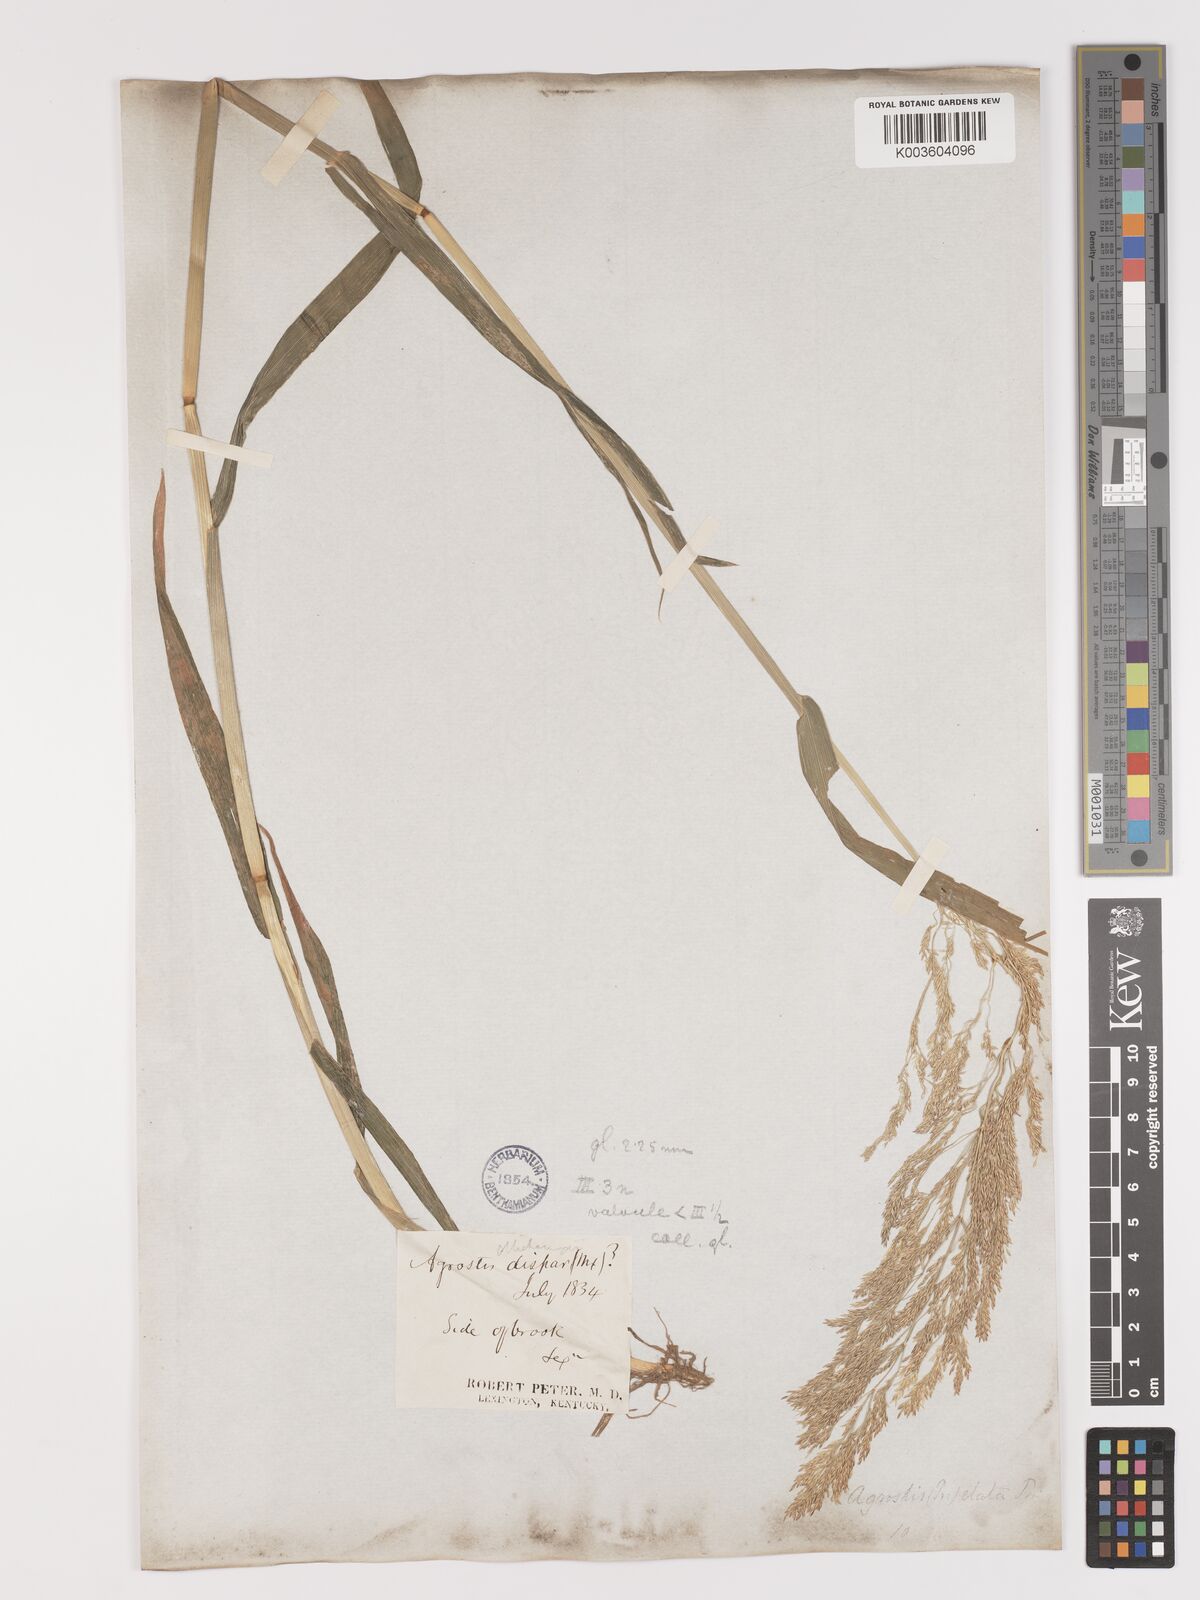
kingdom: Plantae
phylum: Tracheophyta
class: Liliopsida
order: Poales
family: Poaceae
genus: Agrostis
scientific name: Agrostis gigantea
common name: Black bent
